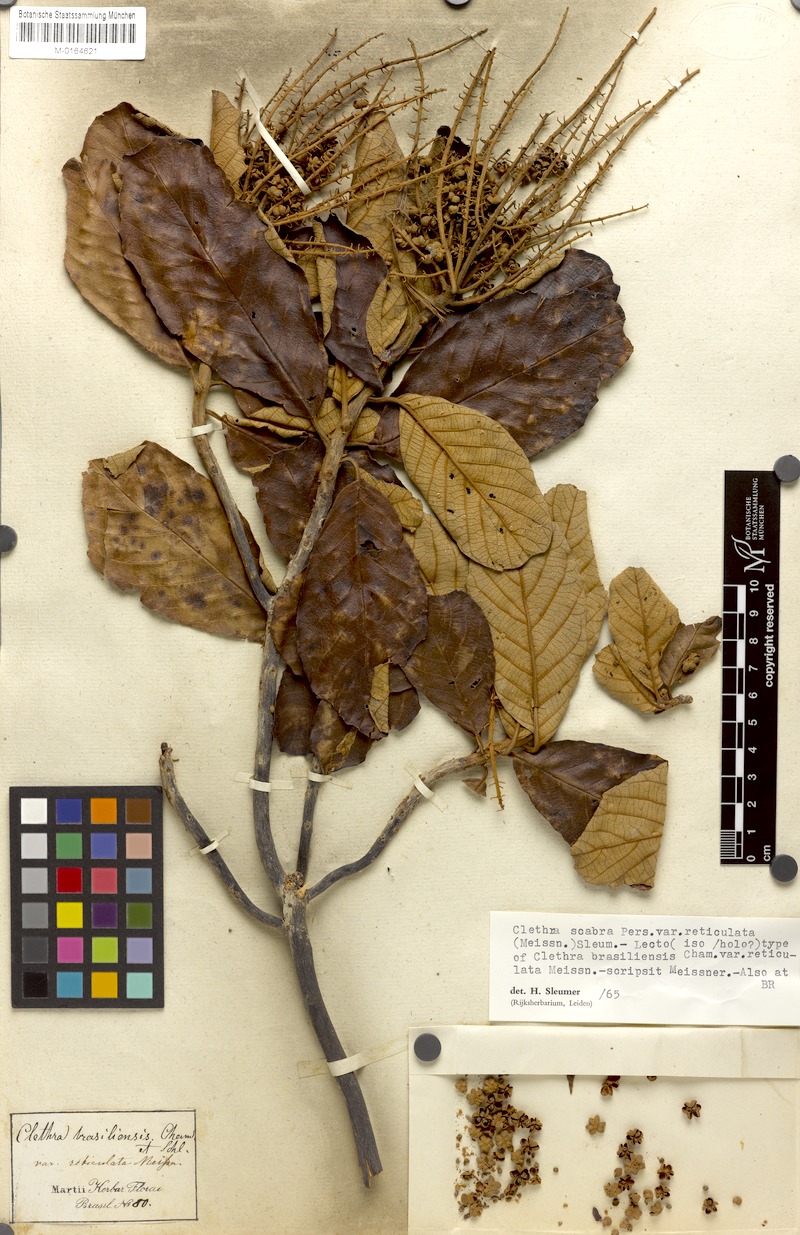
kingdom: Plantae
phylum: Tracheophyta
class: Magnoliopsida
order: Ericales
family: Clethraceae
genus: Clethra
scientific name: Clethra scabra
